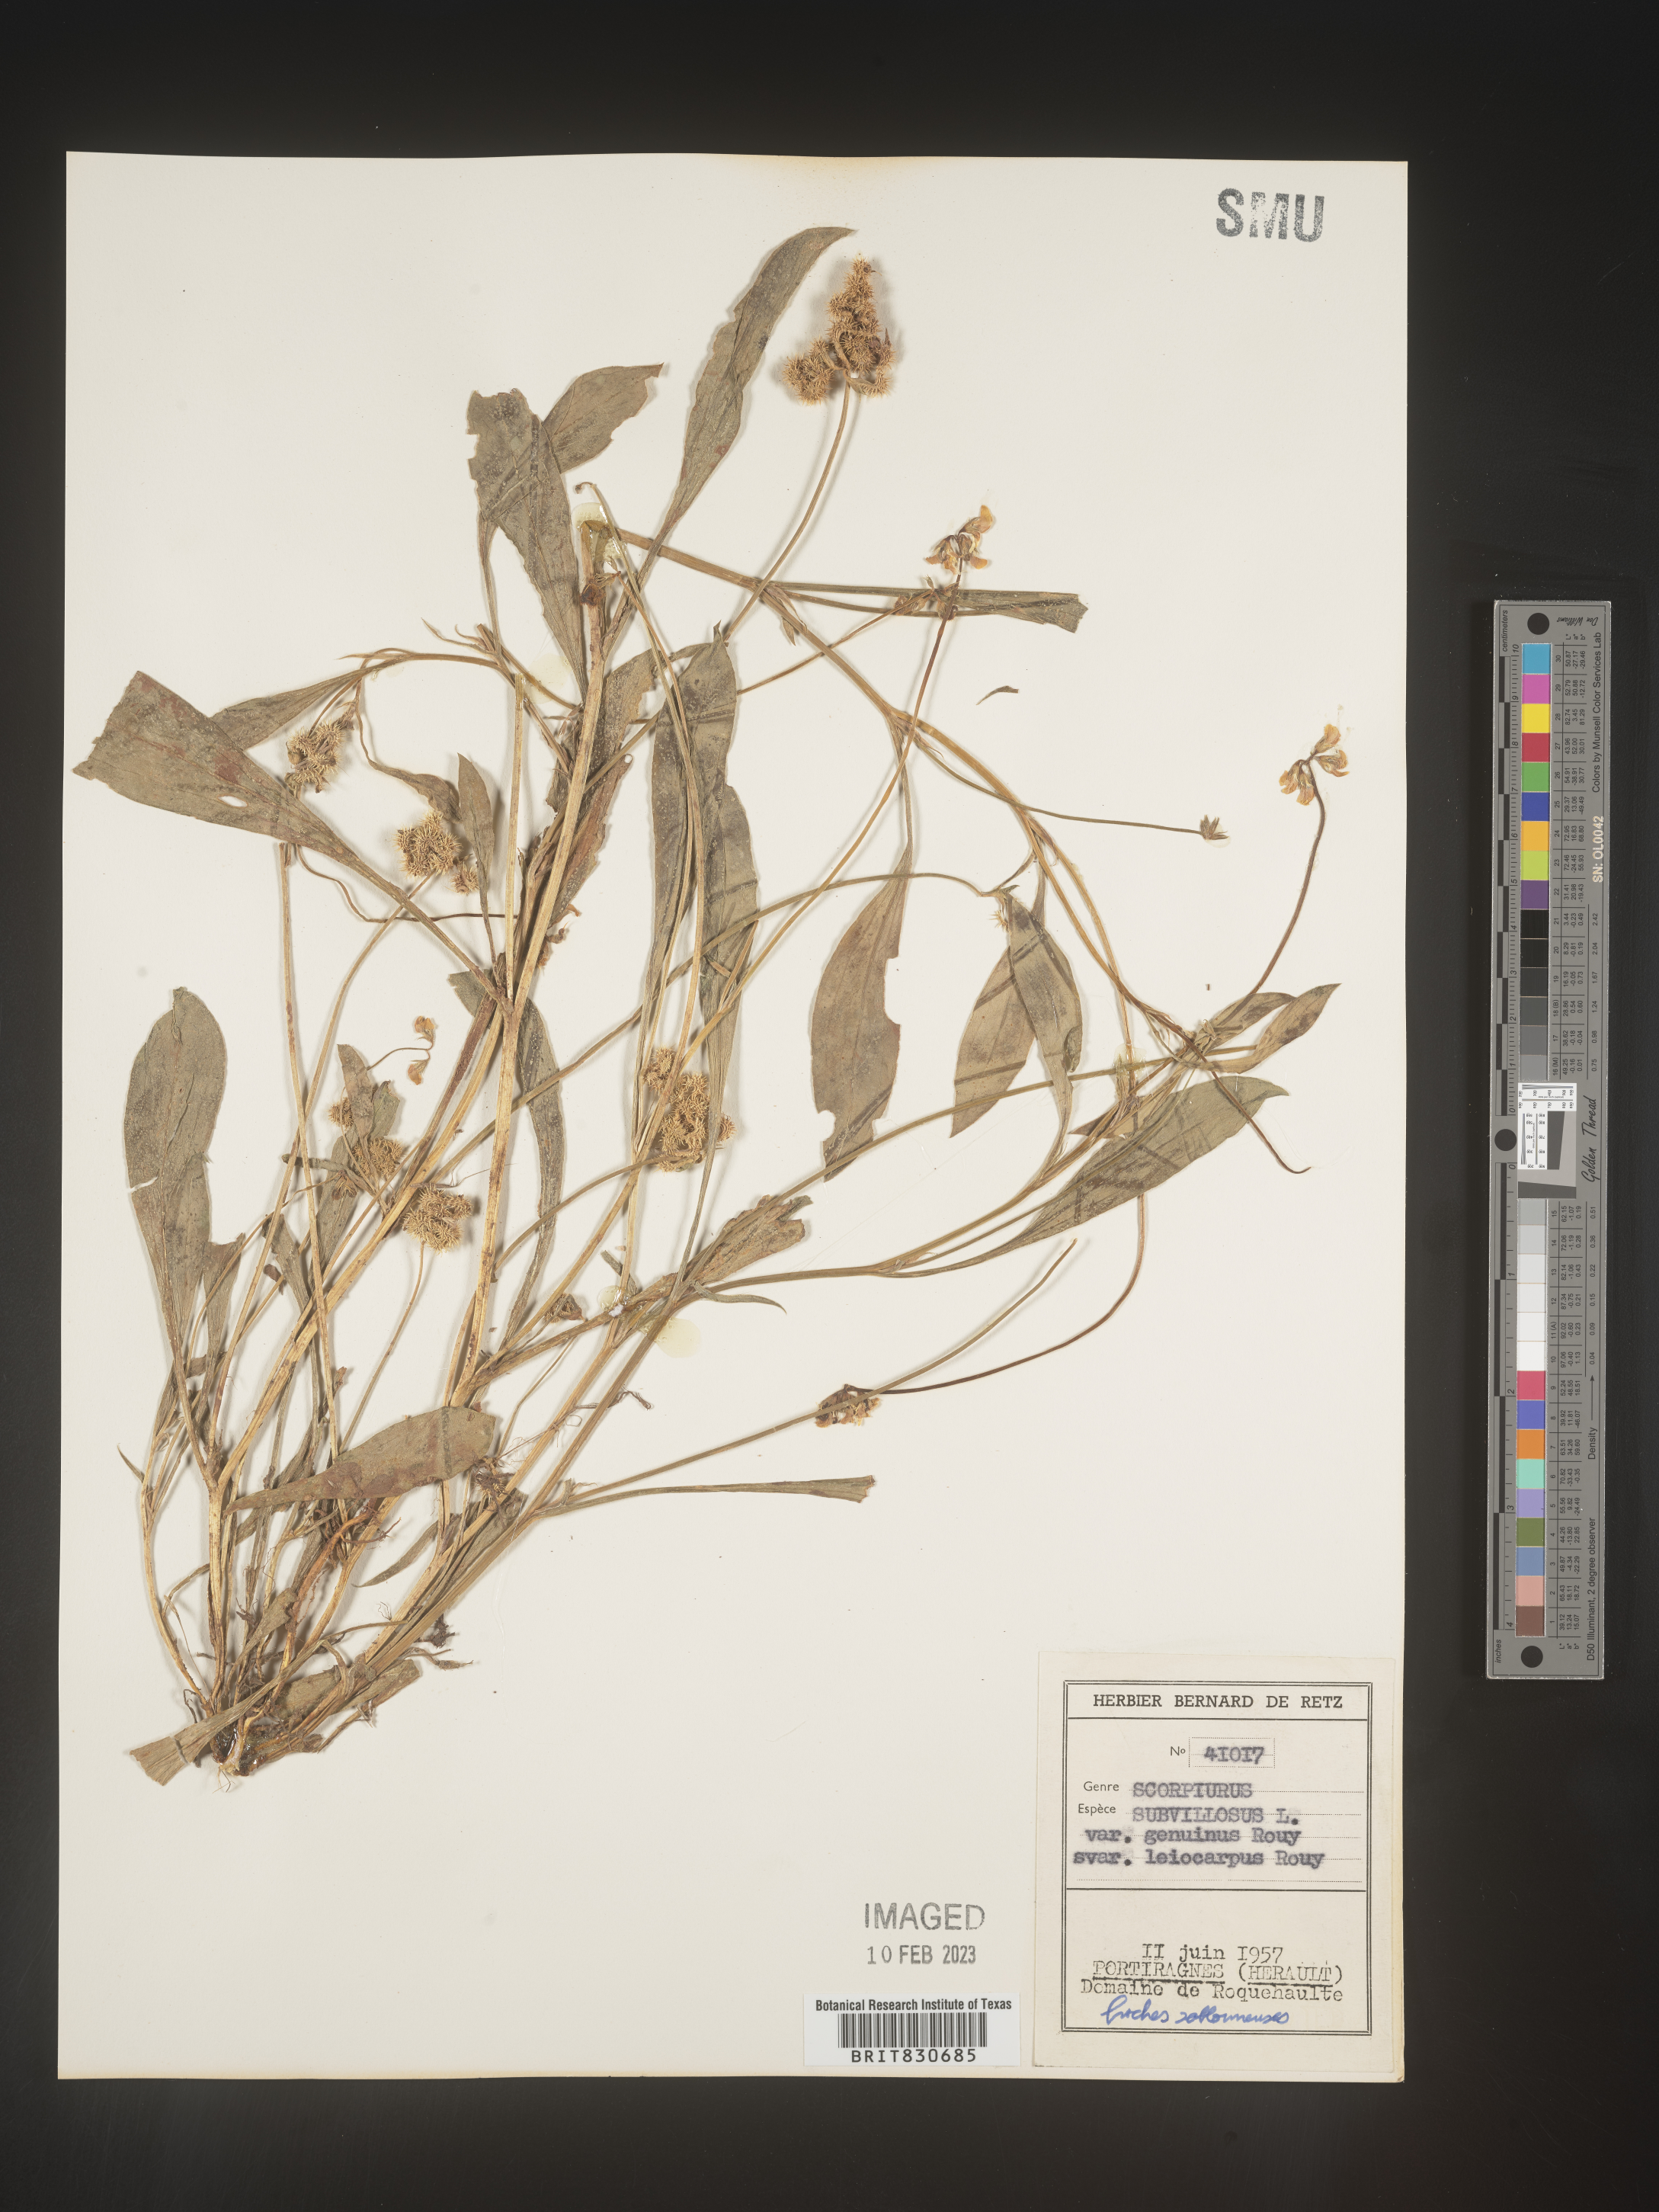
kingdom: Plantae
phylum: Tracheophyta
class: Magnoliopsida
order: Fabales
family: Fabaceae
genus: Scorpiurus
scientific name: Scorpiurus
